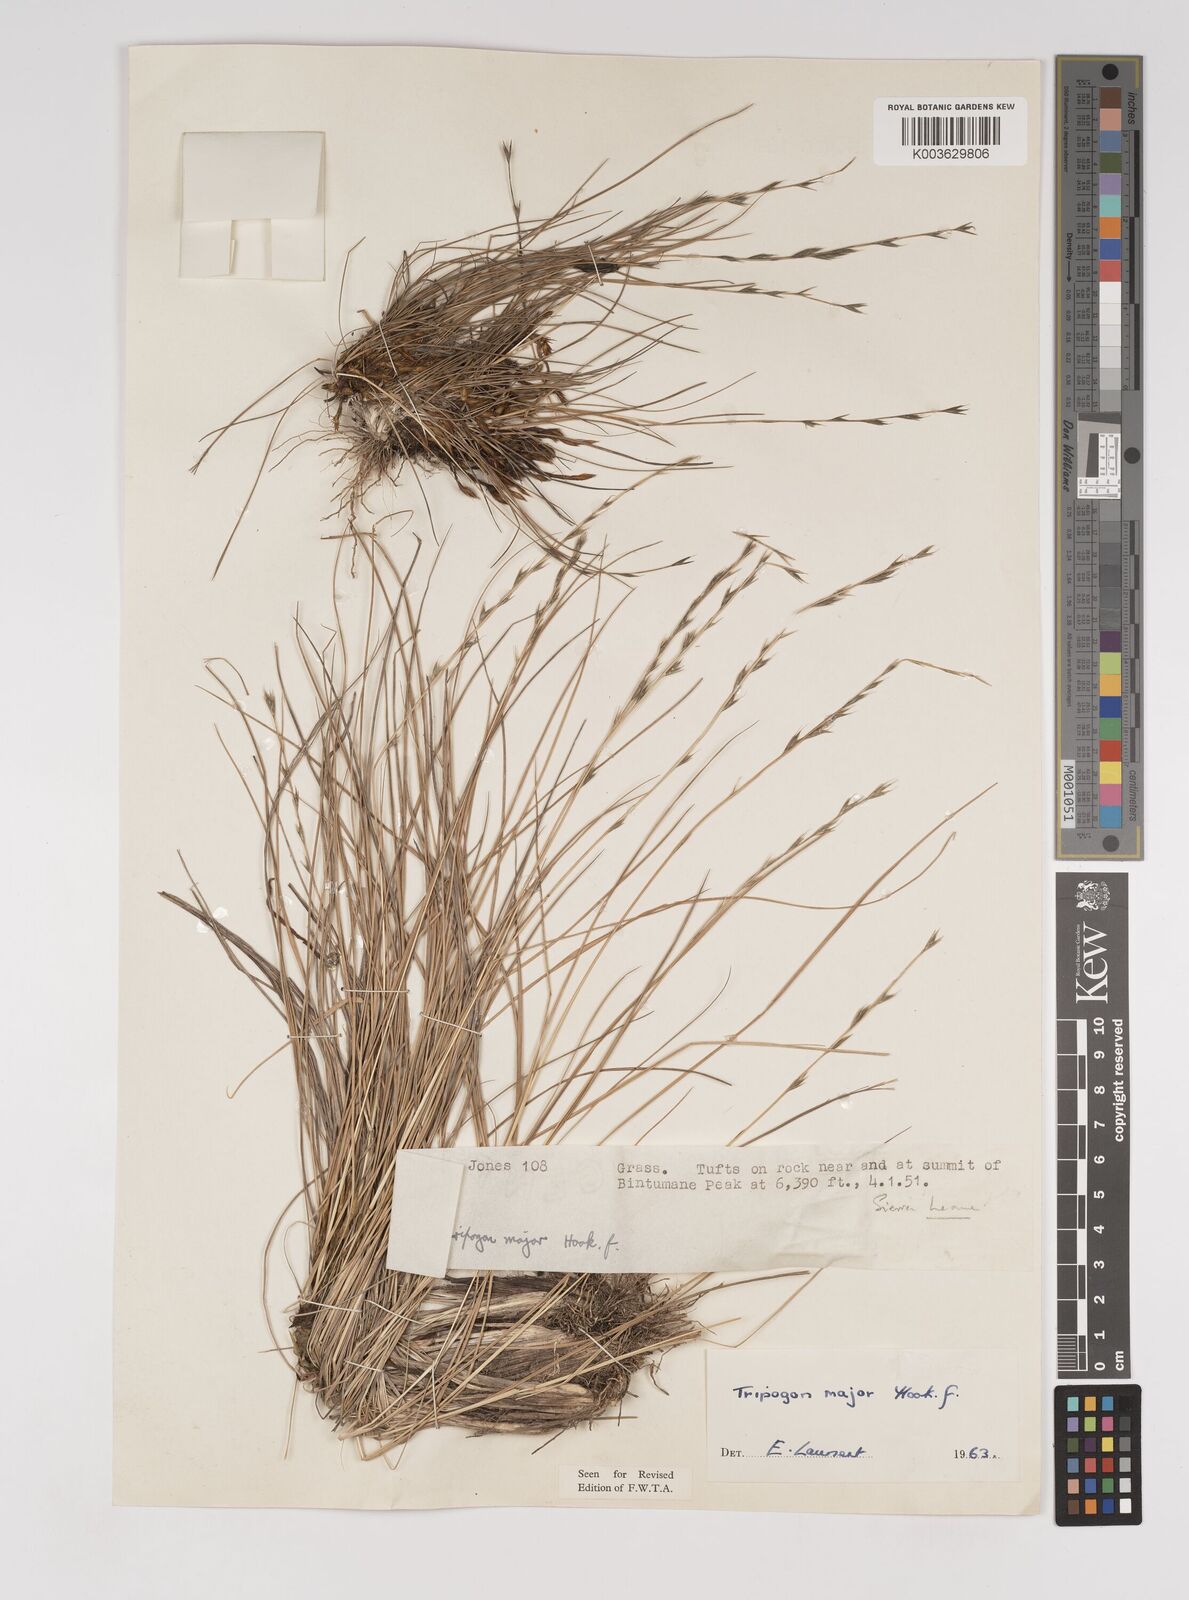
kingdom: Plantae
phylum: Tracheophyta
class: Liliopsida
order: Poales
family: Poaceae
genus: Tripogon
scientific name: Tripogon major
